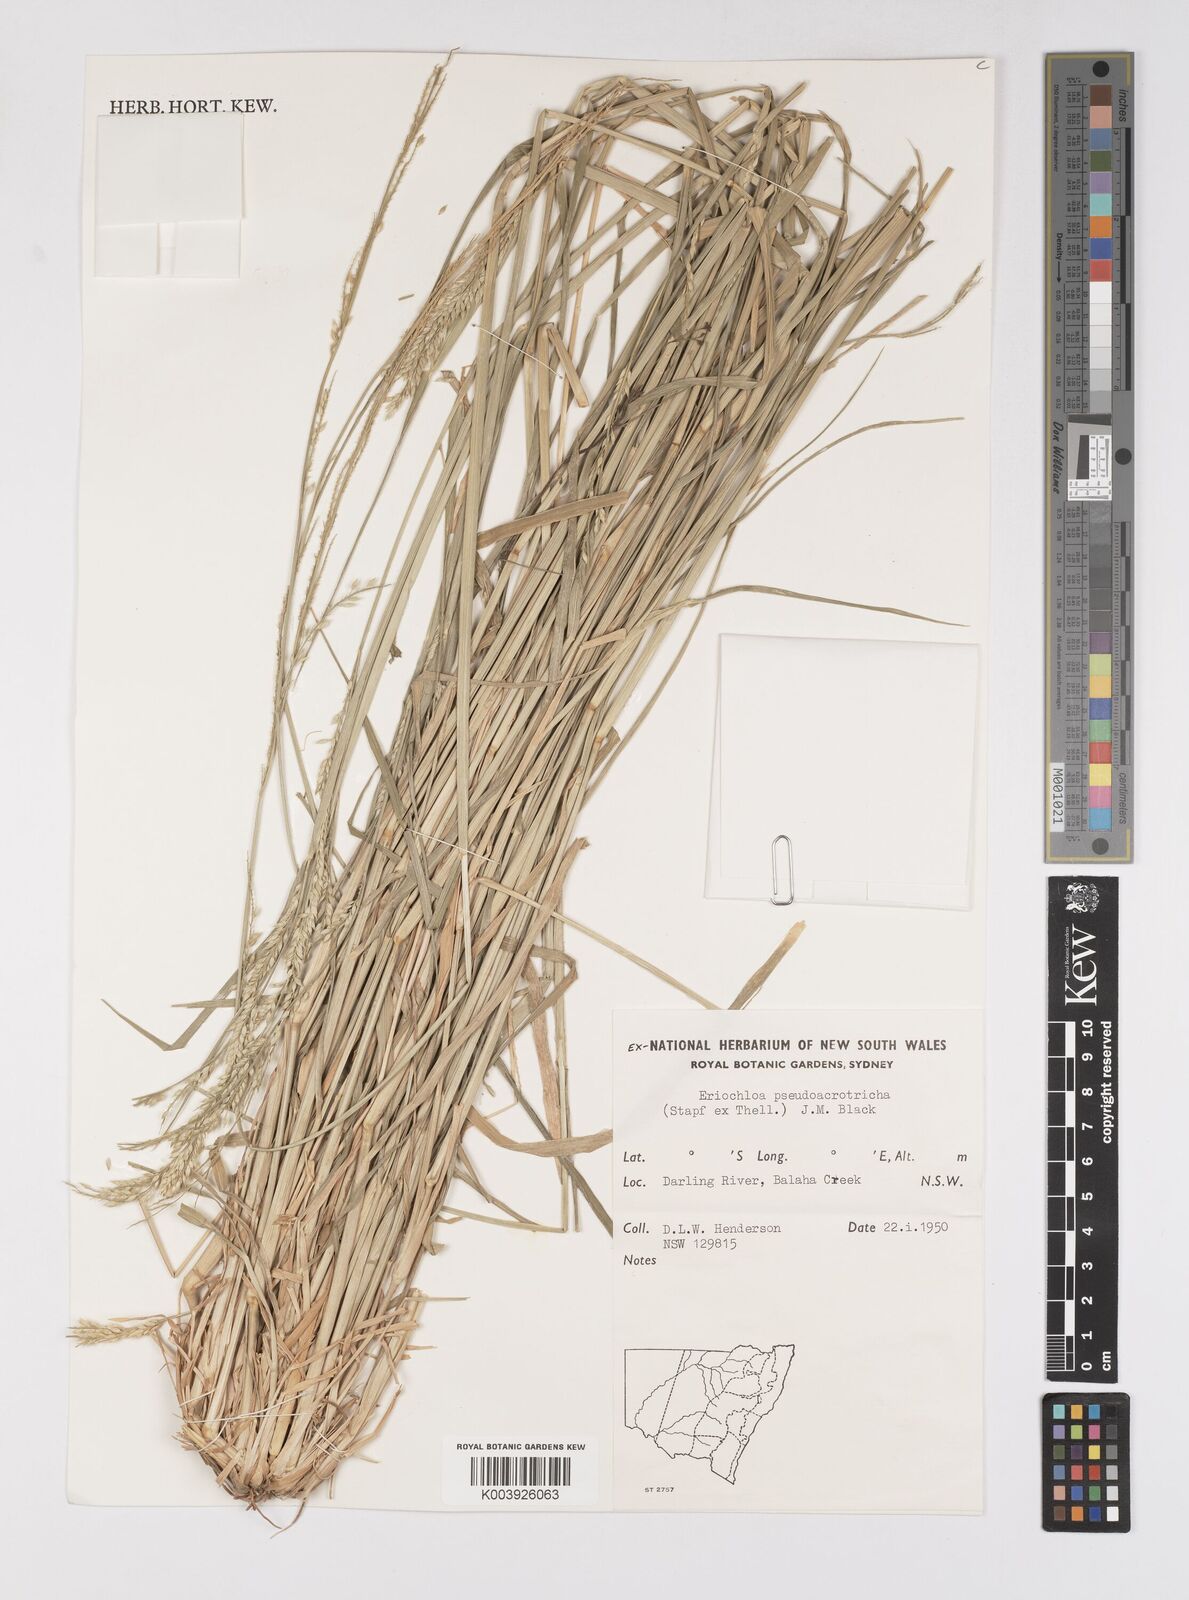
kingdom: Plantae
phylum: Tracheophyta
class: Liliopsida
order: Poales
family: Poaceae
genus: Eriochloa
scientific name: Eriochloa pseudoacrotricha
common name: Perennial cup-grass
